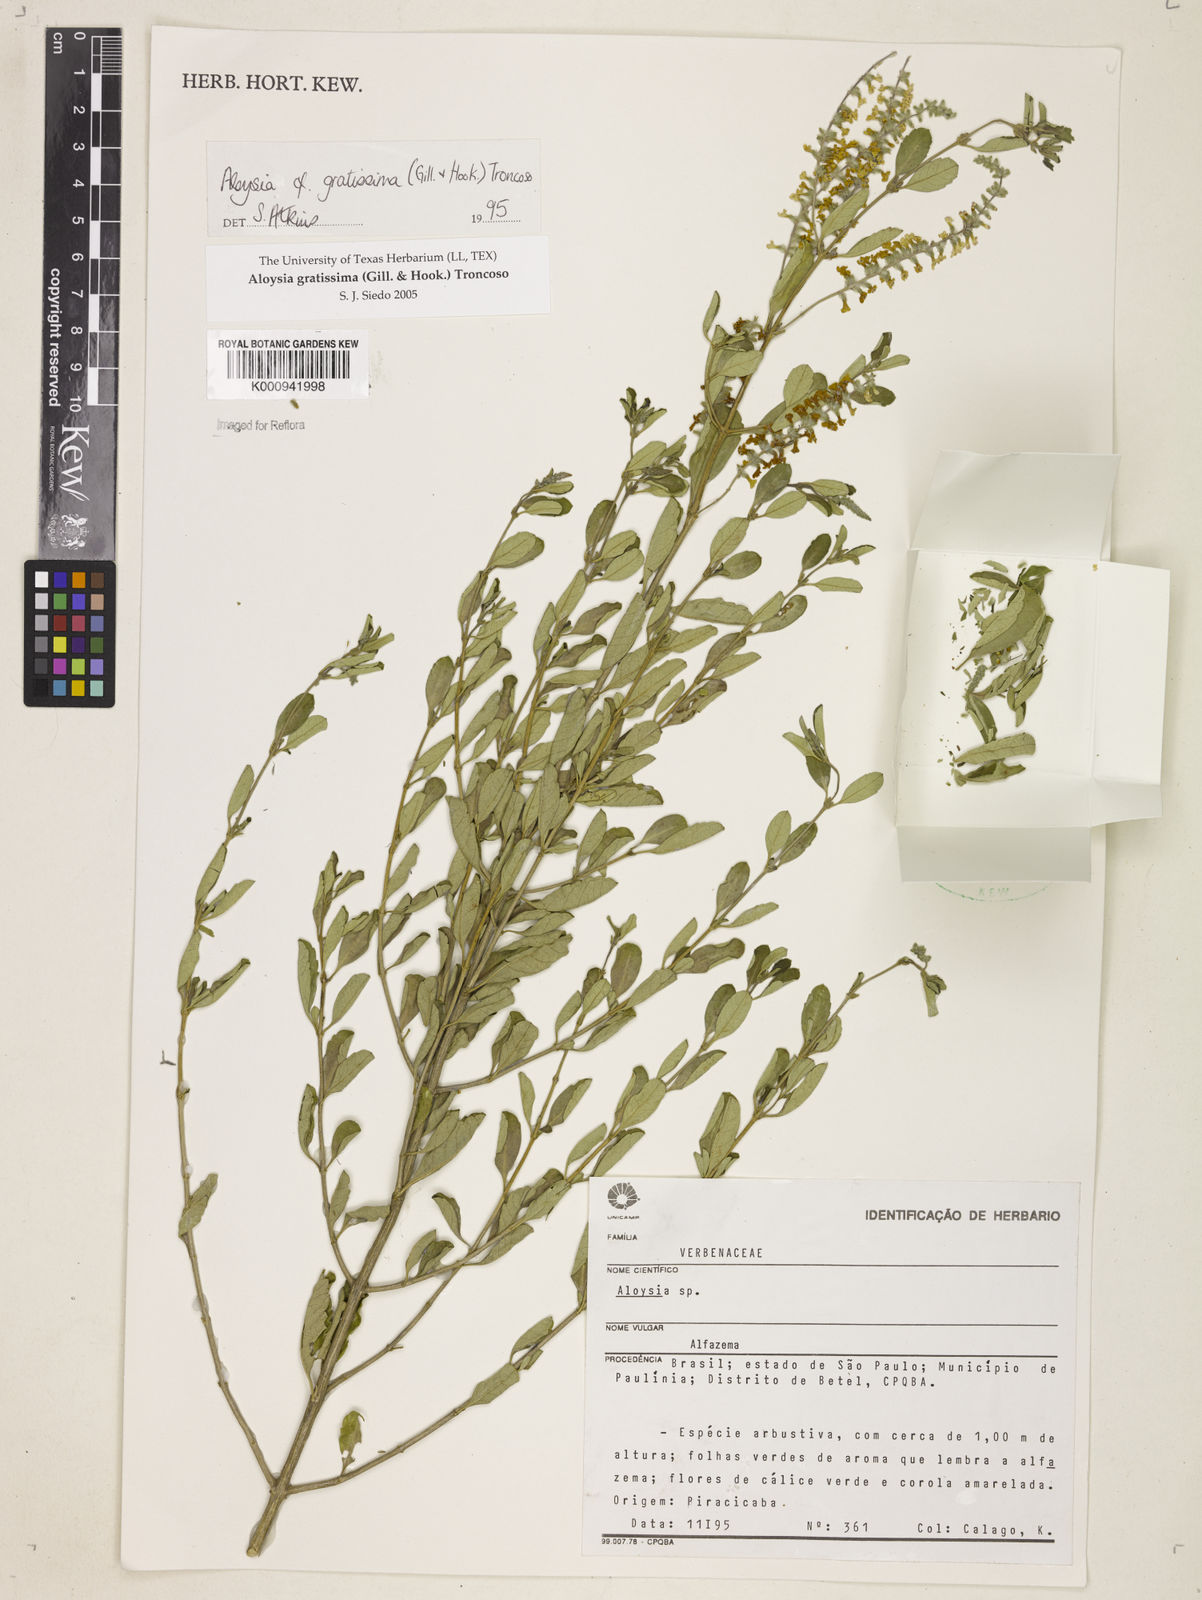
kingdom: Plantae
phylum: Tracheophyta
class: Magnoliopsida
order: Lamiales
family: Verbenaceae
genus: Aloysia
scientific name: Aloysia gratissima
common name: Common bee-brush
